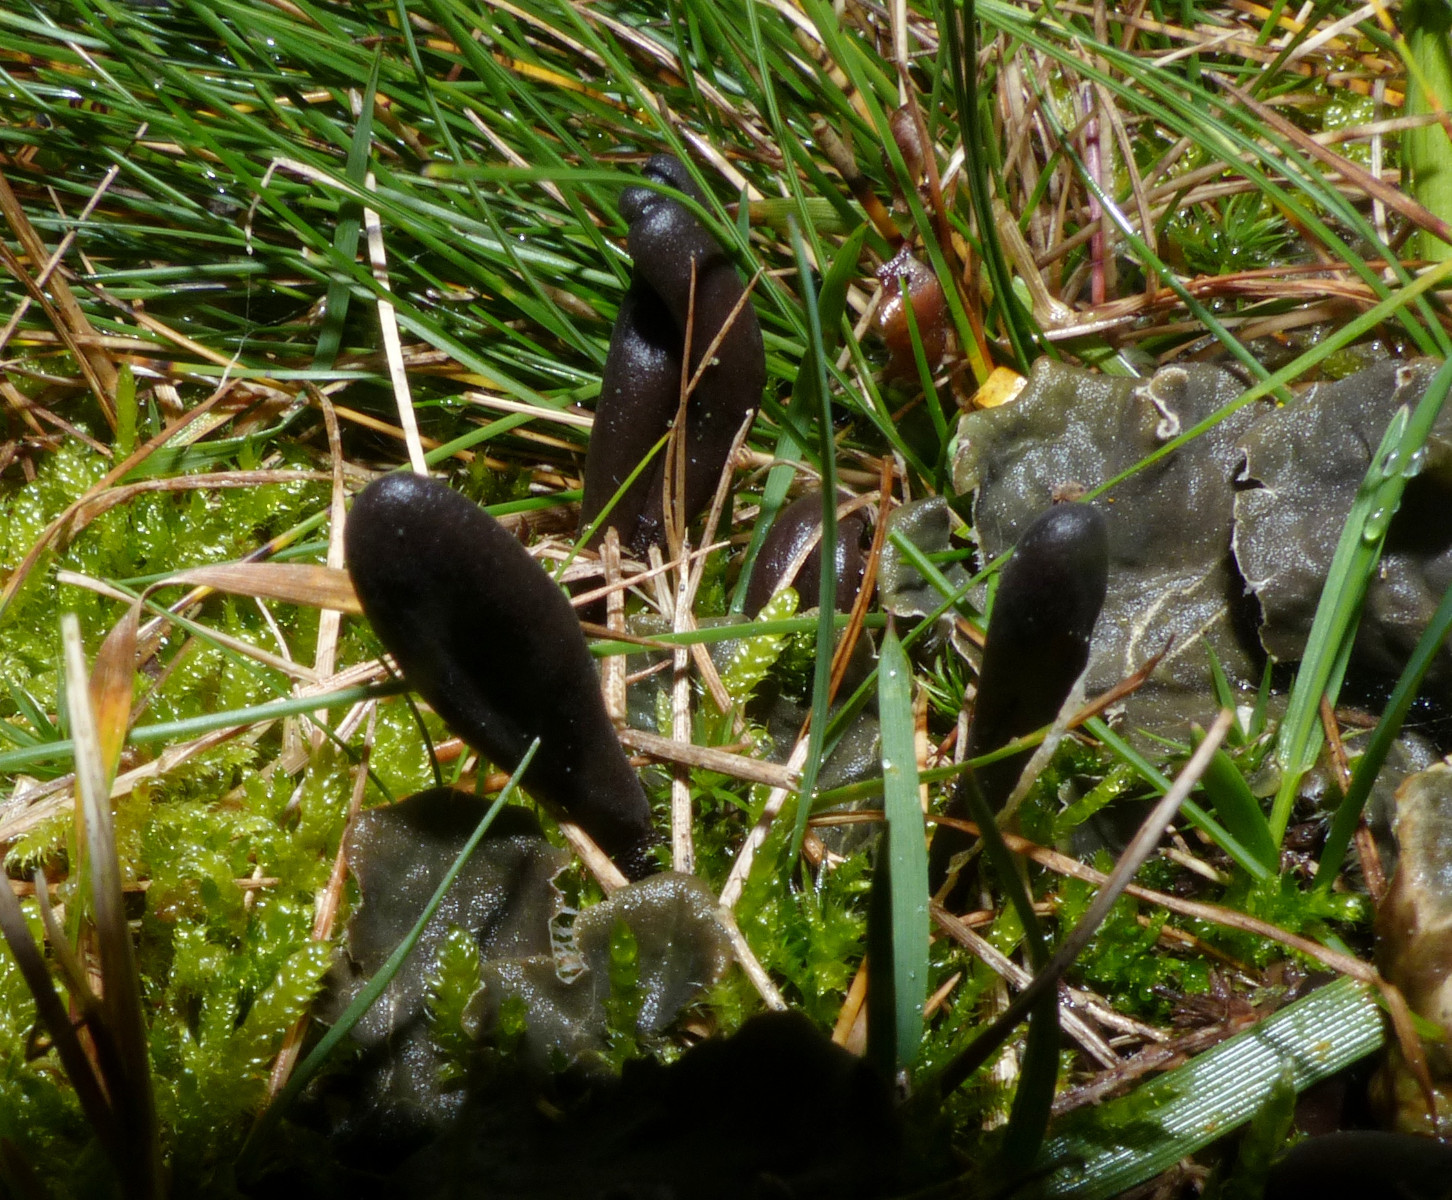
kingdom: Fungi
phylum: Ascomycota
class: Geoglossomycetes
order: Geoglossales
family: Geoglossaceae
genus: Hemileucoglossum
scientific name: Hemileucoglossum elongatum
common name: småsporet jordtunge
